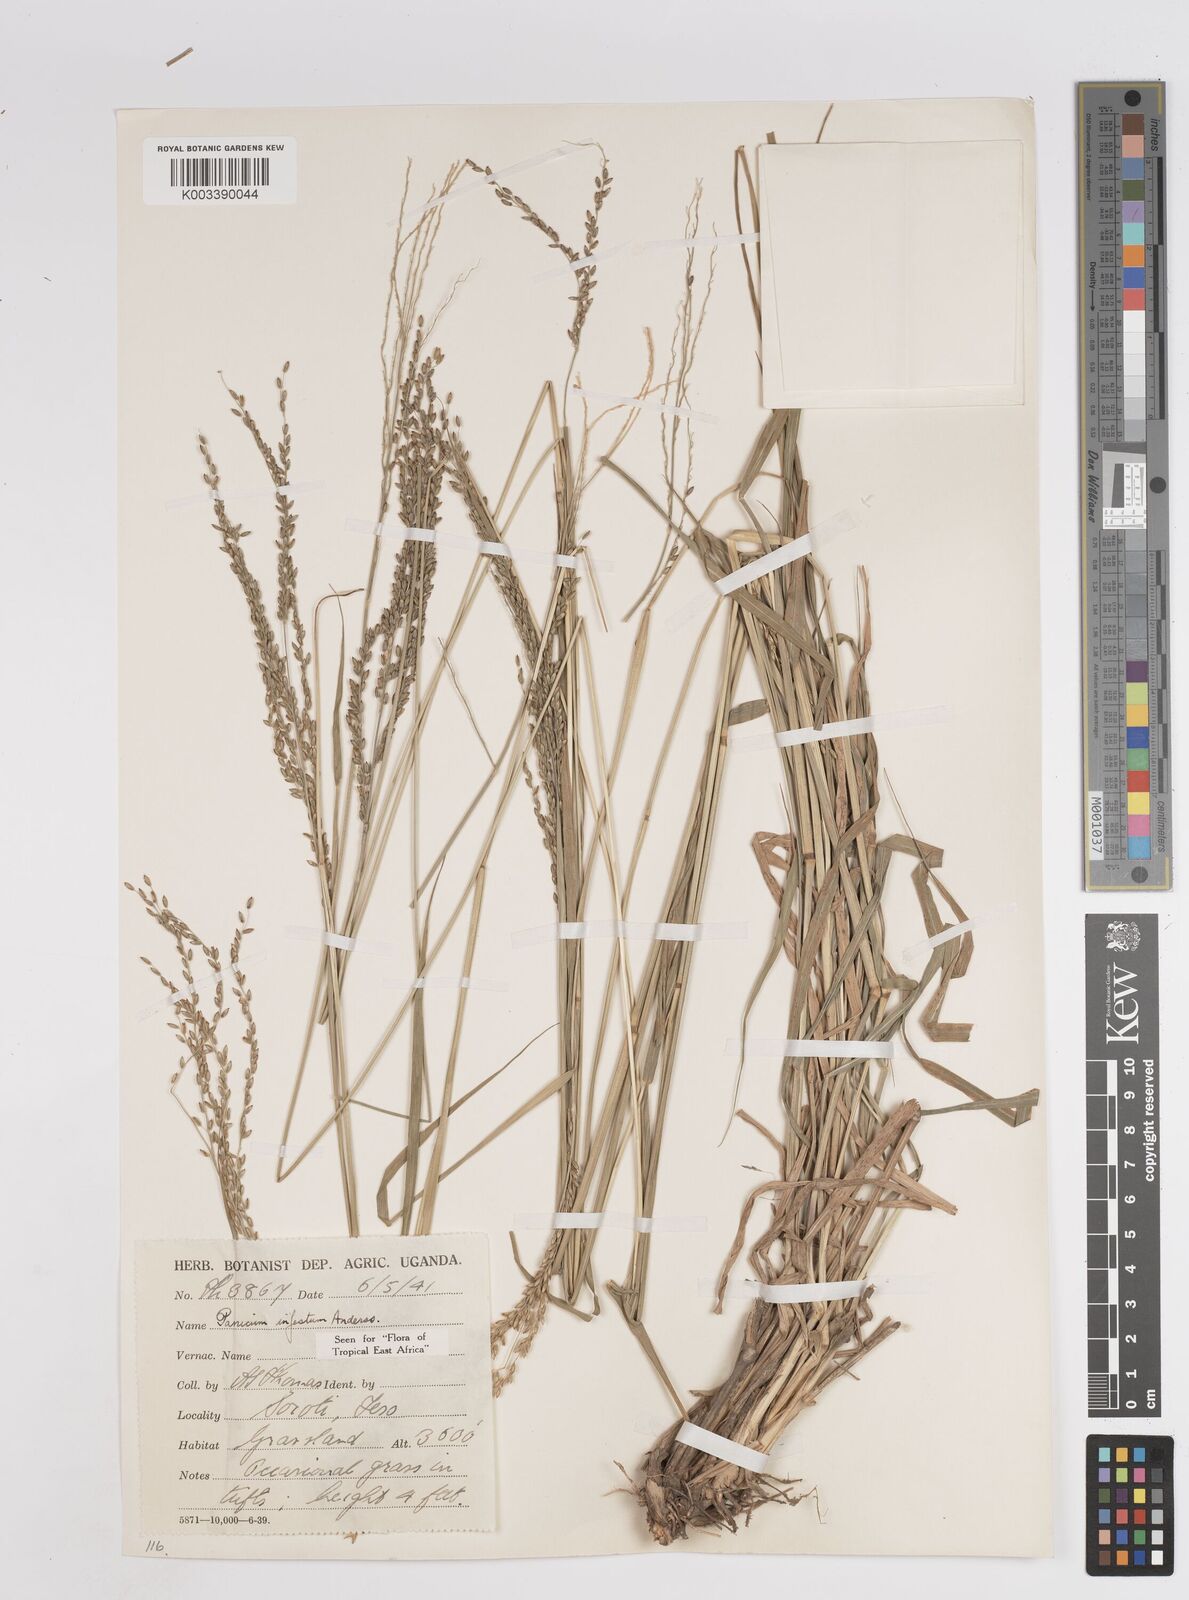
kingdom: Plantae
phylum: Tracheophyta
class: Liliopsida
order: Poales
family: Poaceae
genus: Megathyrsus
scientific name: Megathyrsus infestus
